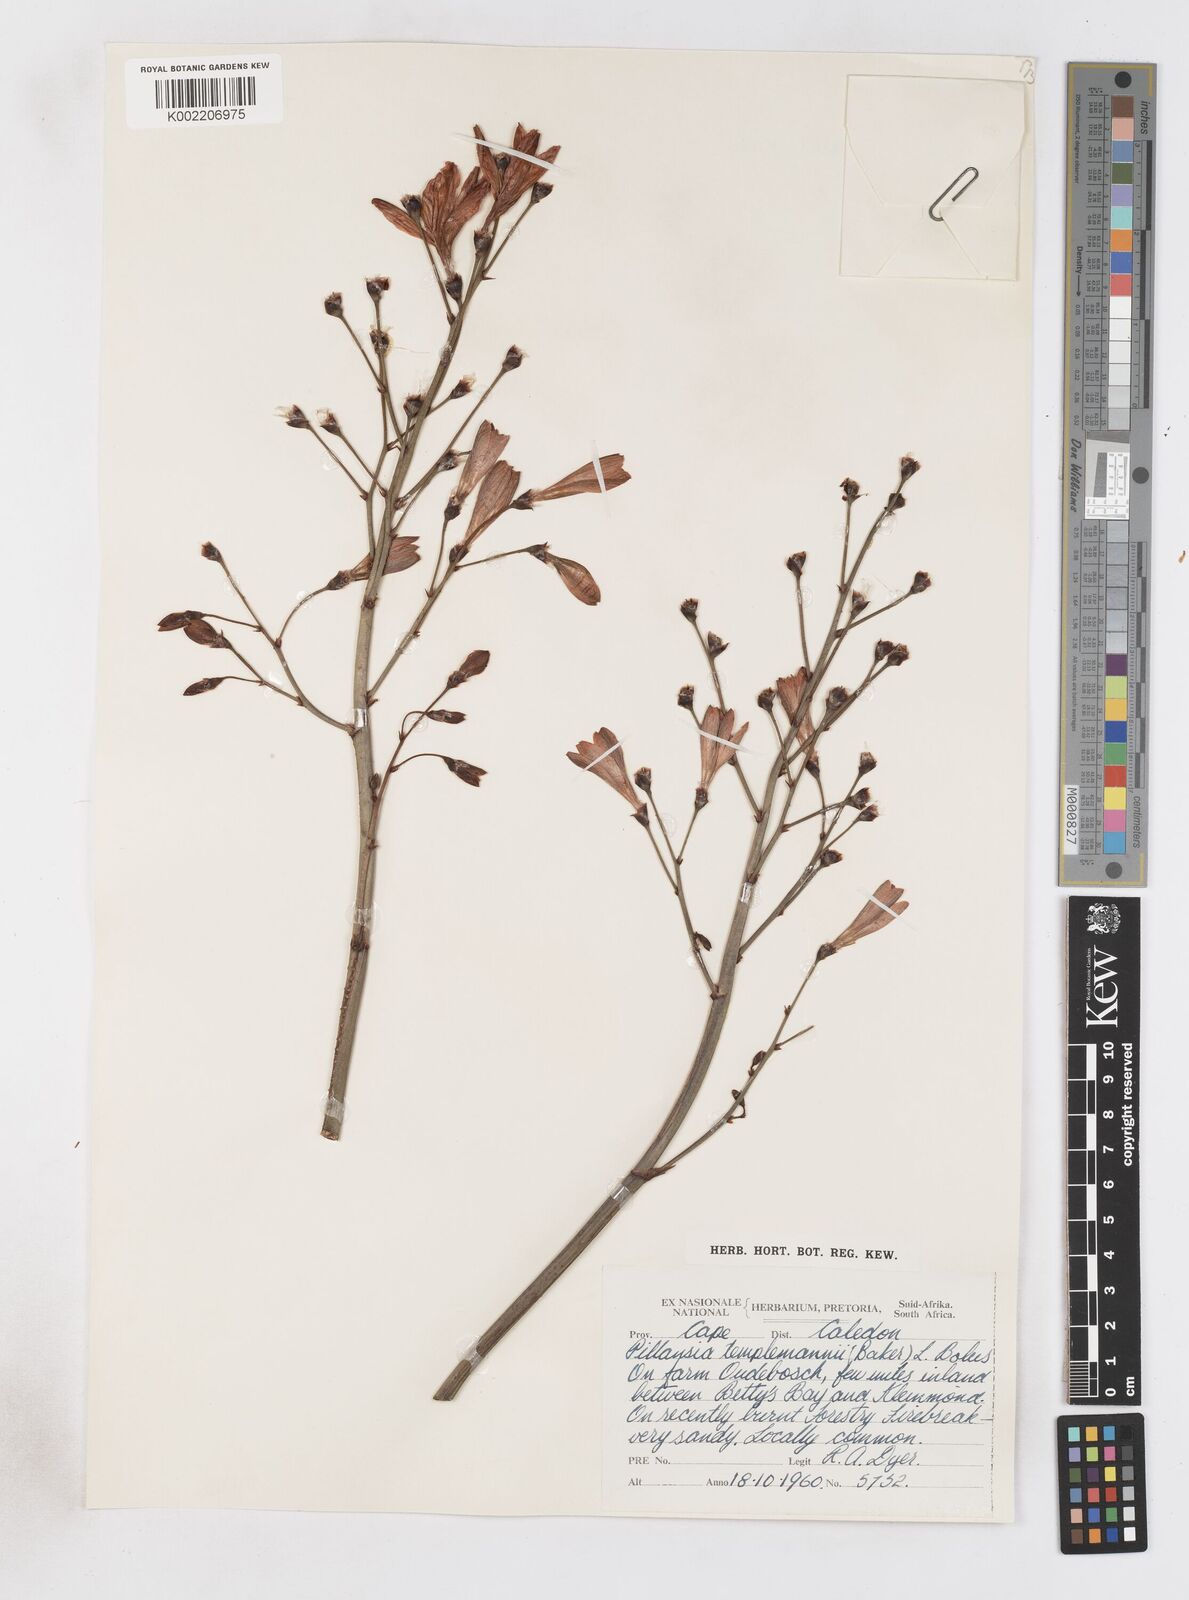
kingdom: Plantae
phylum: Tracheophyta
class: Liliopsida
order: Asparagales
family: Iridaceae
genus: Pillansia
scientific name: Pillansia templemannii
